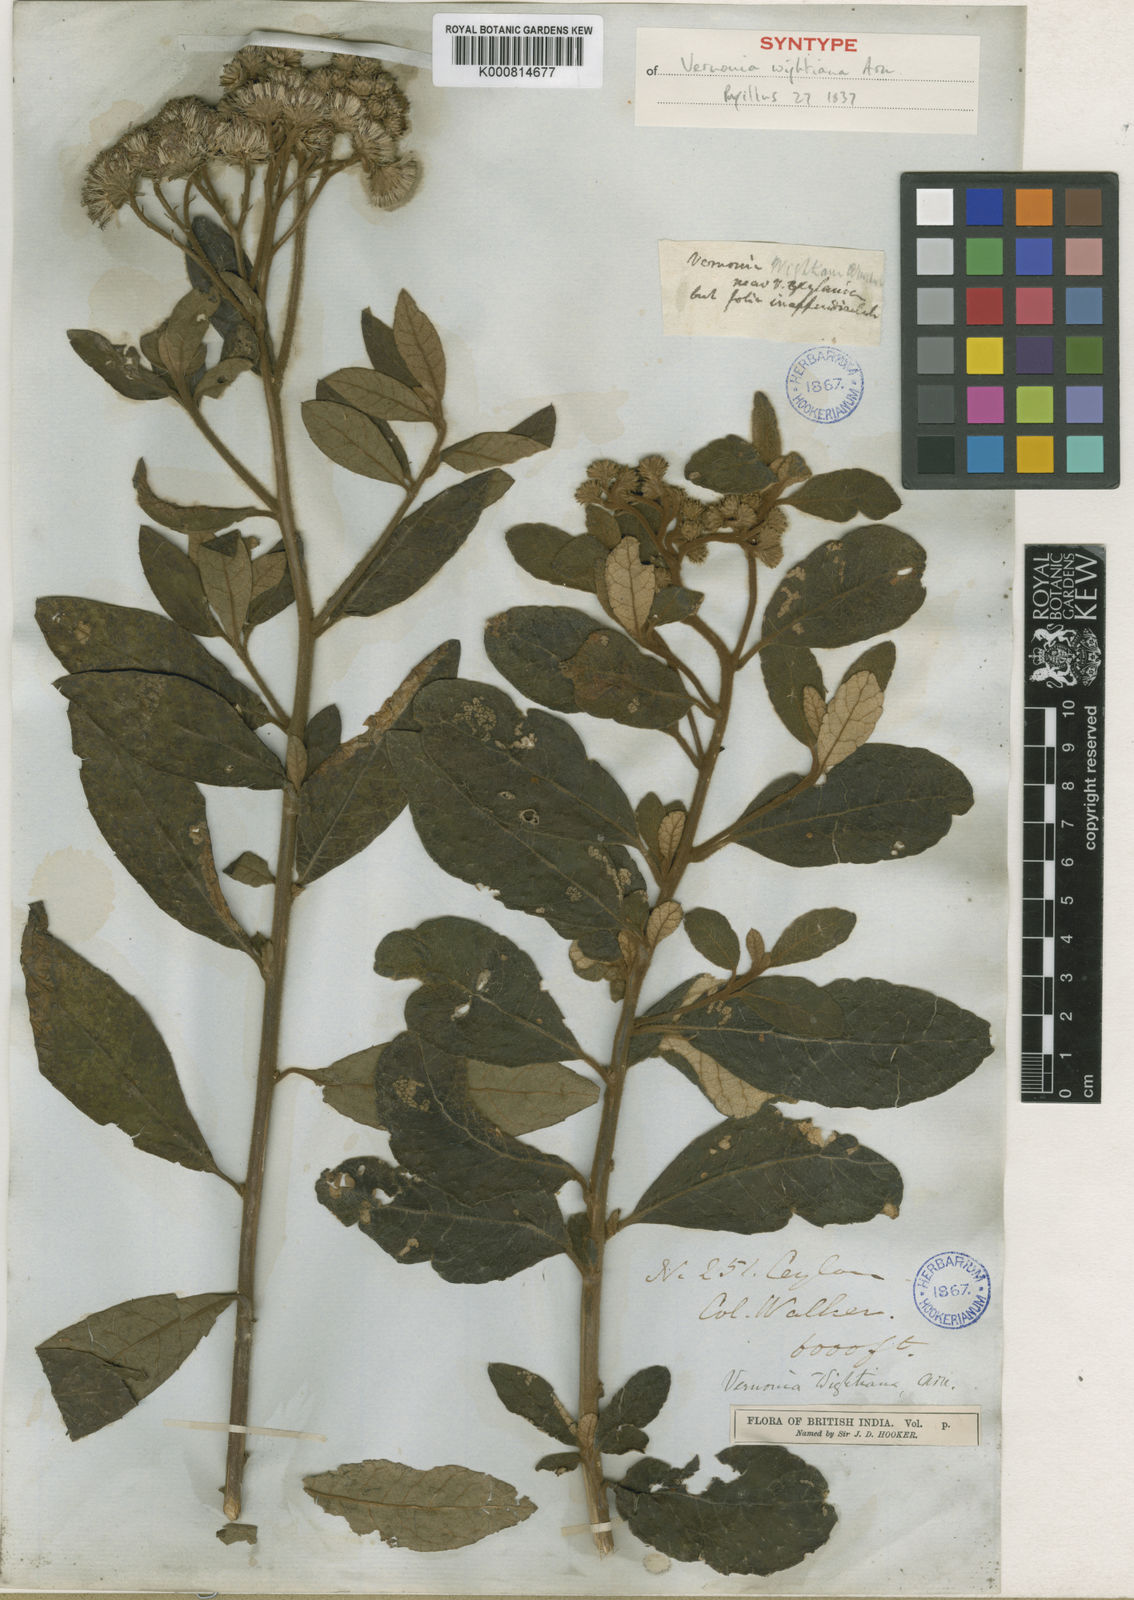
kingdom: Plantae
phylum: Tracheophyta
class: Magnoliopsida
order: Asterales
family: Asteraceae
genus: Vernonia
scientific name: Vernonia
